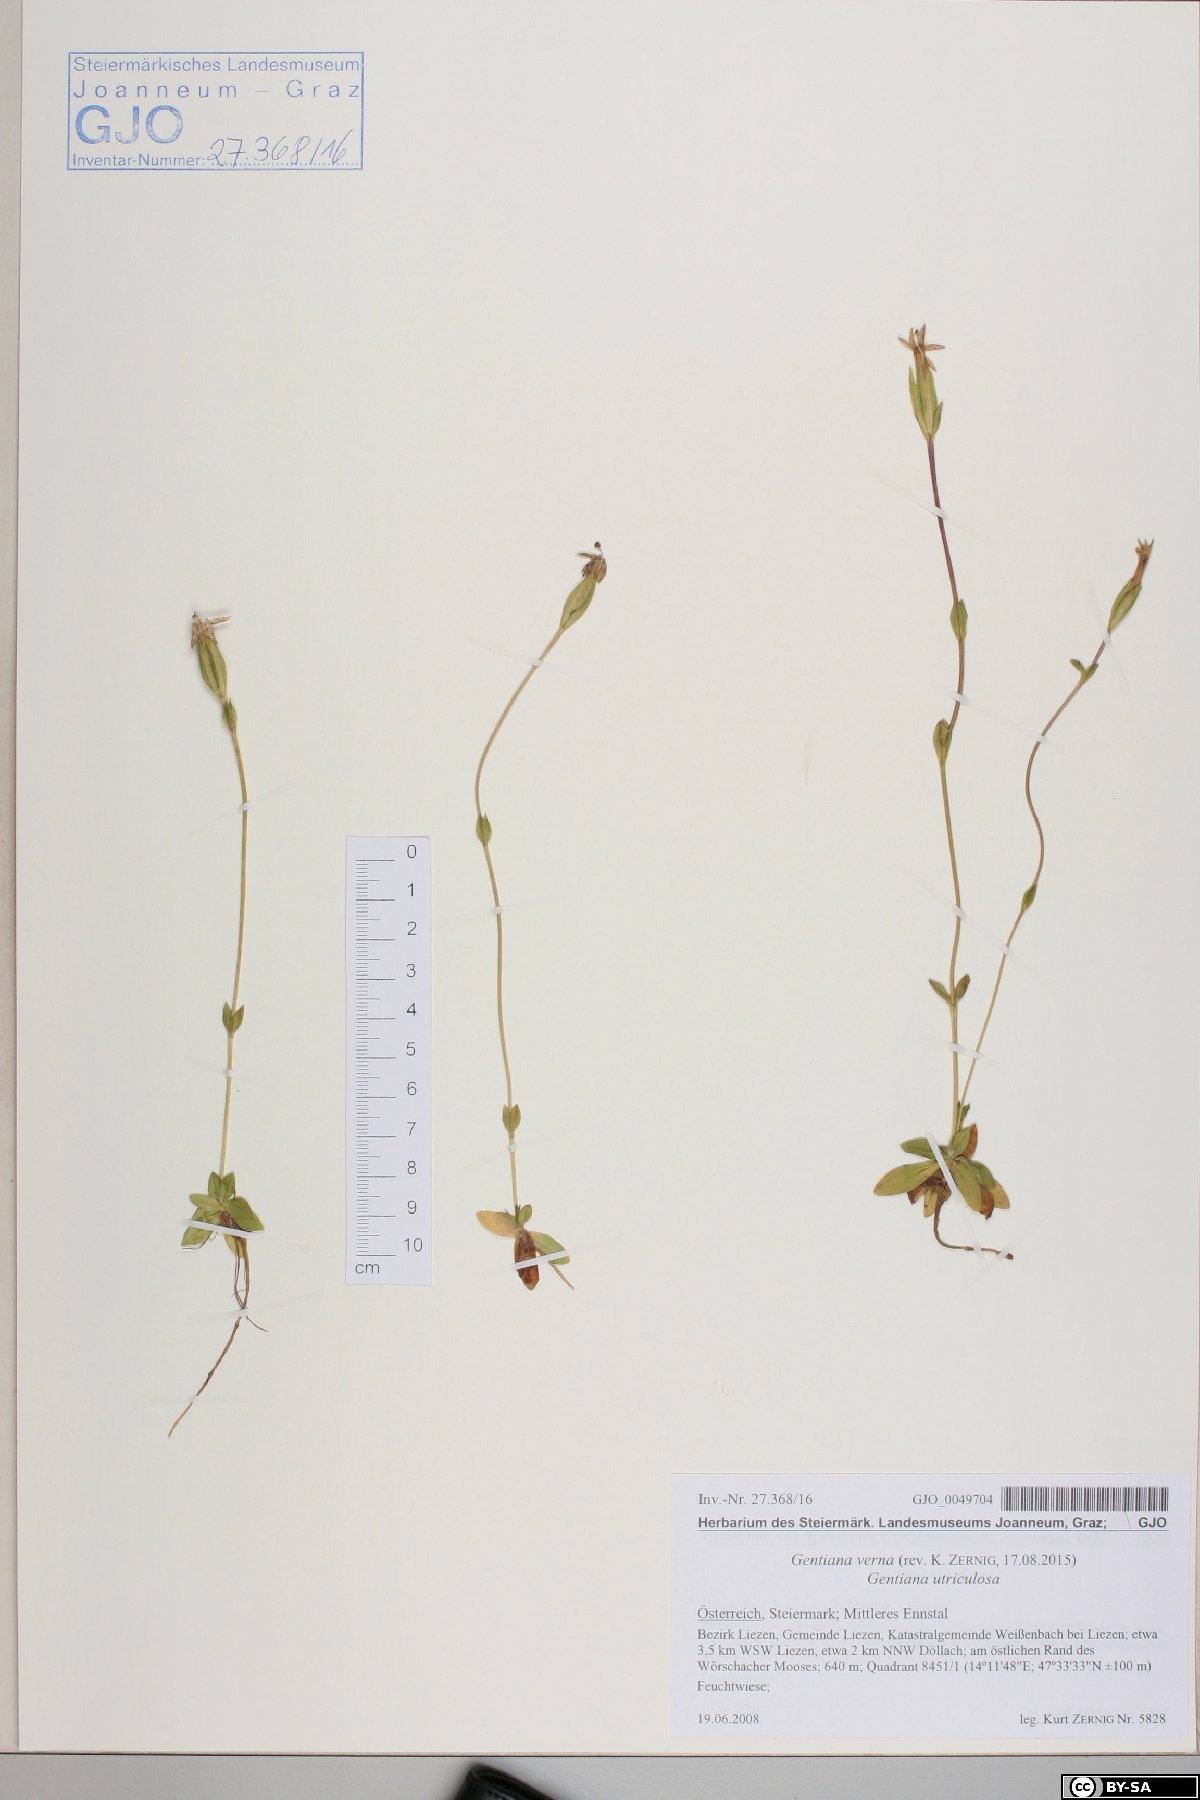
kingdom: Plantae
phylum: Tracheophyta
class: Magnoliopsida
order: Gentianales
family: Gentianaceae
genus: Gentiana
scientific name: Gentiana verna
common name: Spring gentian
